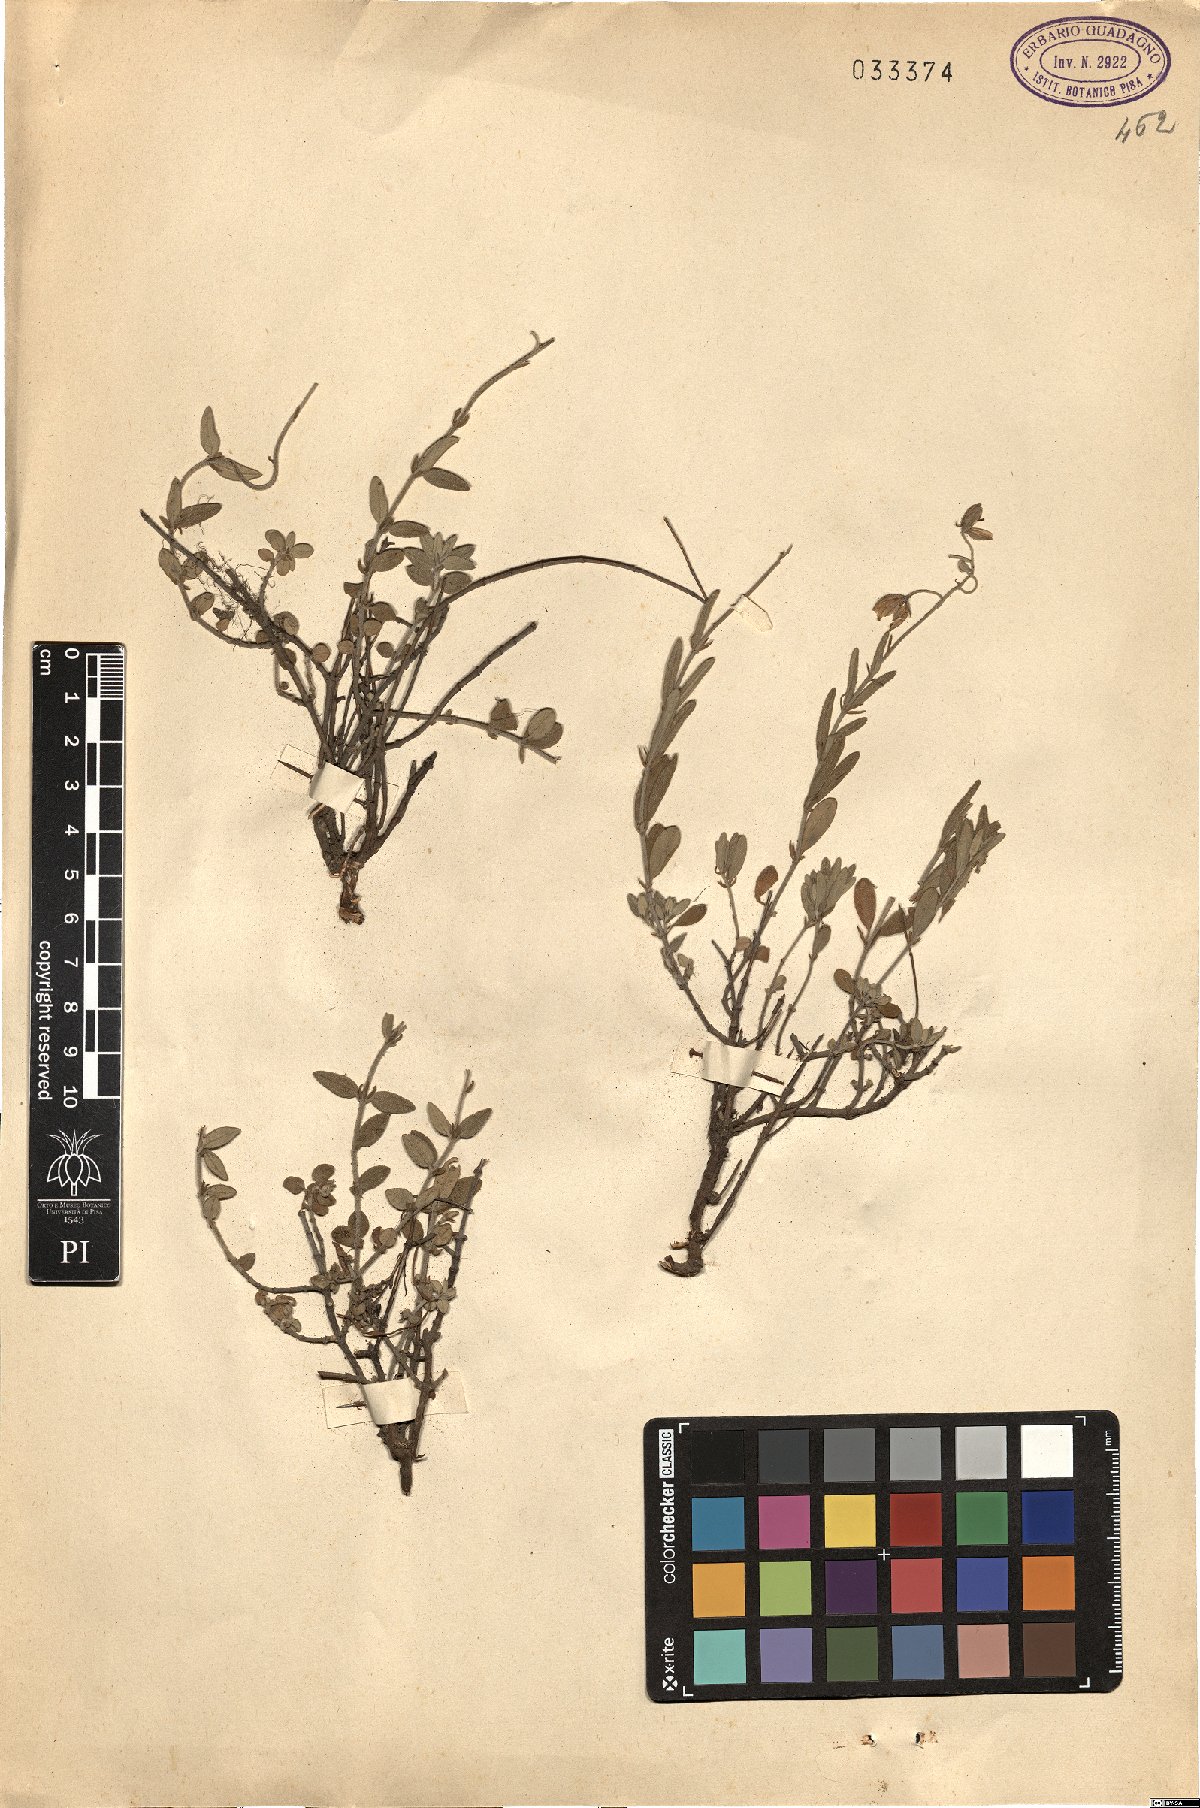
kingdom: Plantae
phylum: Tracheophyta
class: Magnoliopsida
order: Malvales
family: Cistaceae
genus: Helianthemum
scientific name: Helianthemum
